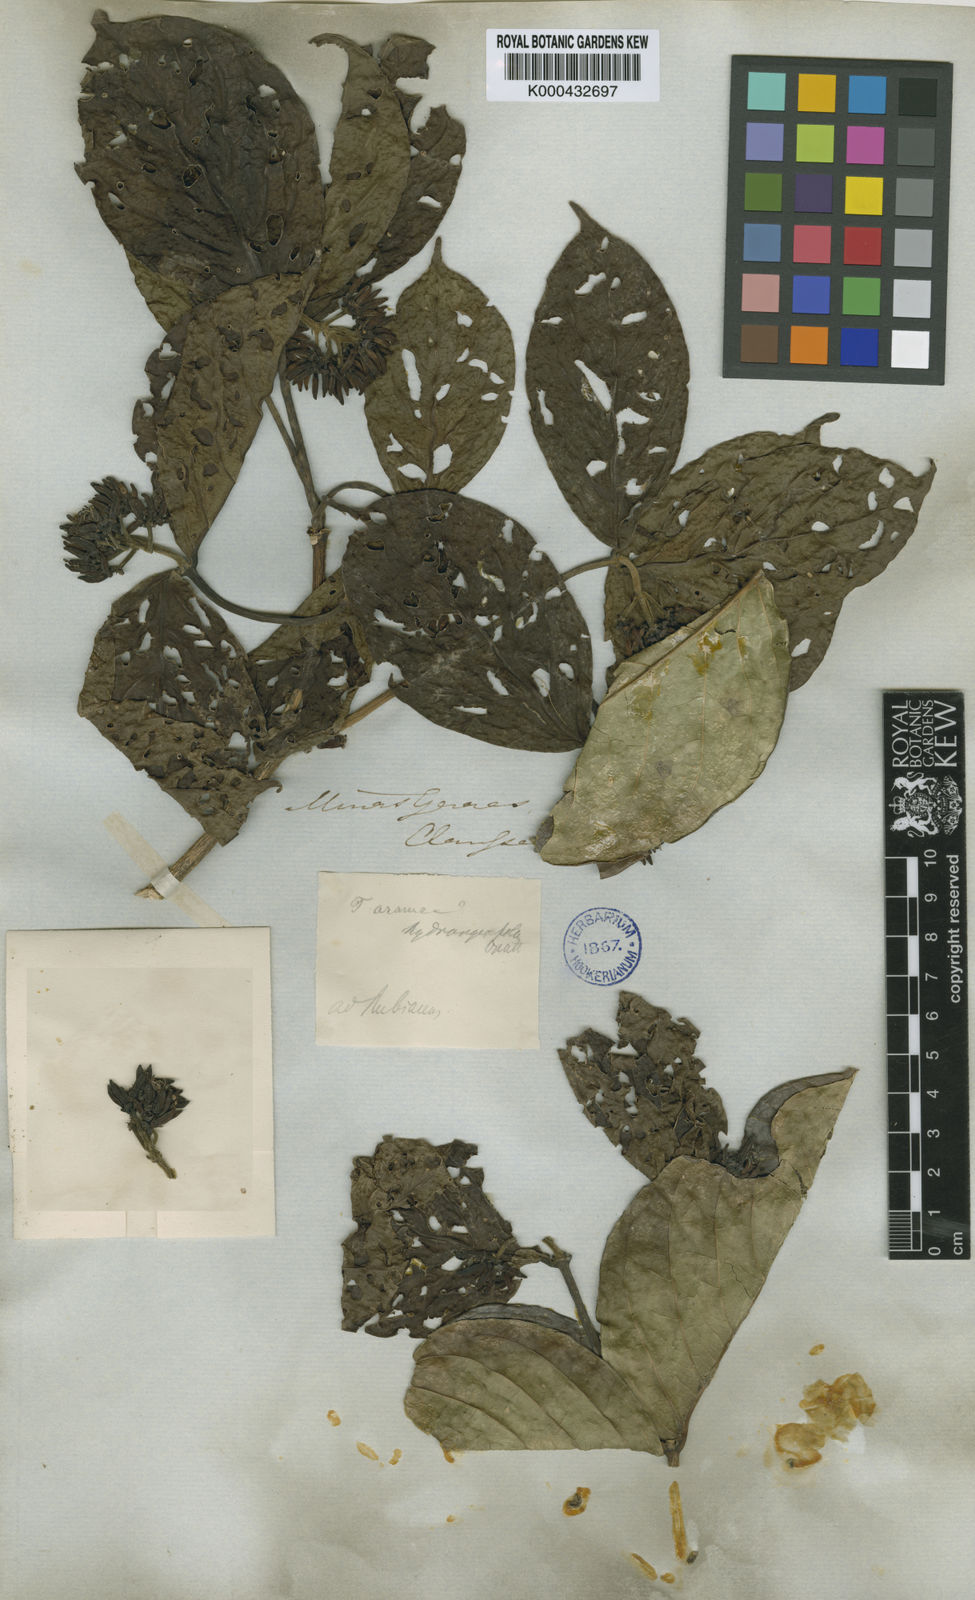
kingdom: Plantae
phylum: Tracheophyta
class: Magnoliopsida
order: Gentianales
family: Rubiaceae
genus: Coussarea
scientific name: Coussarea
